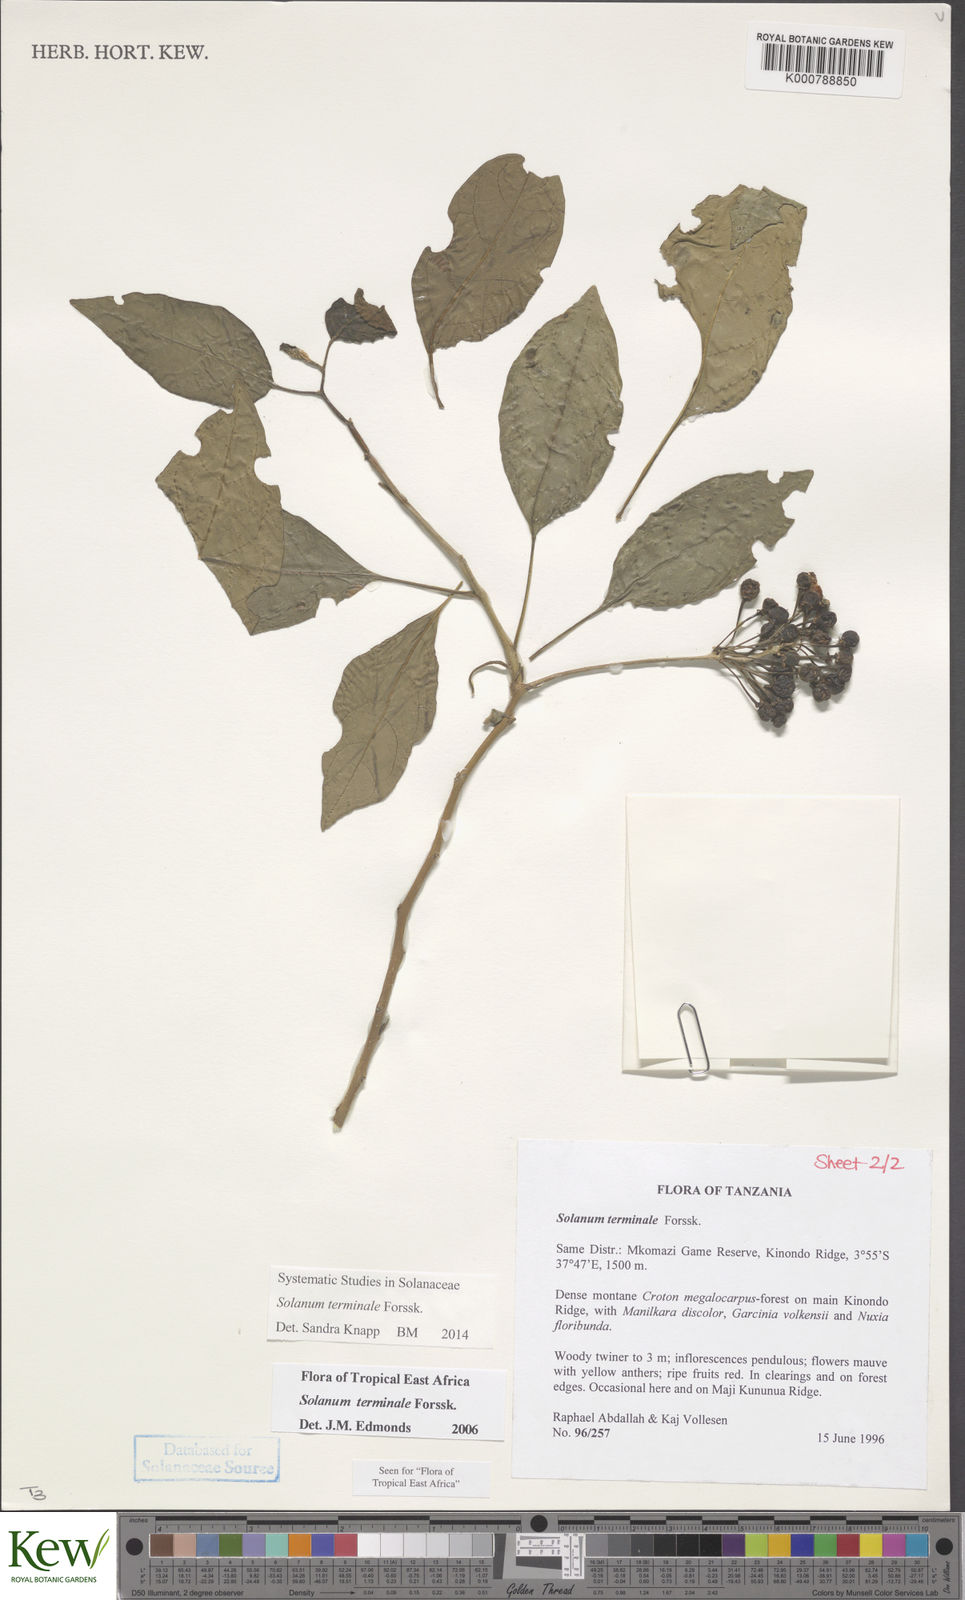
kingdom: Plantae
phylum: Tracheophyta
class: Magnoliopsida
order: Solanales
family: Solanaceae
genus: Solanum
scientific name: Solanum terminale
